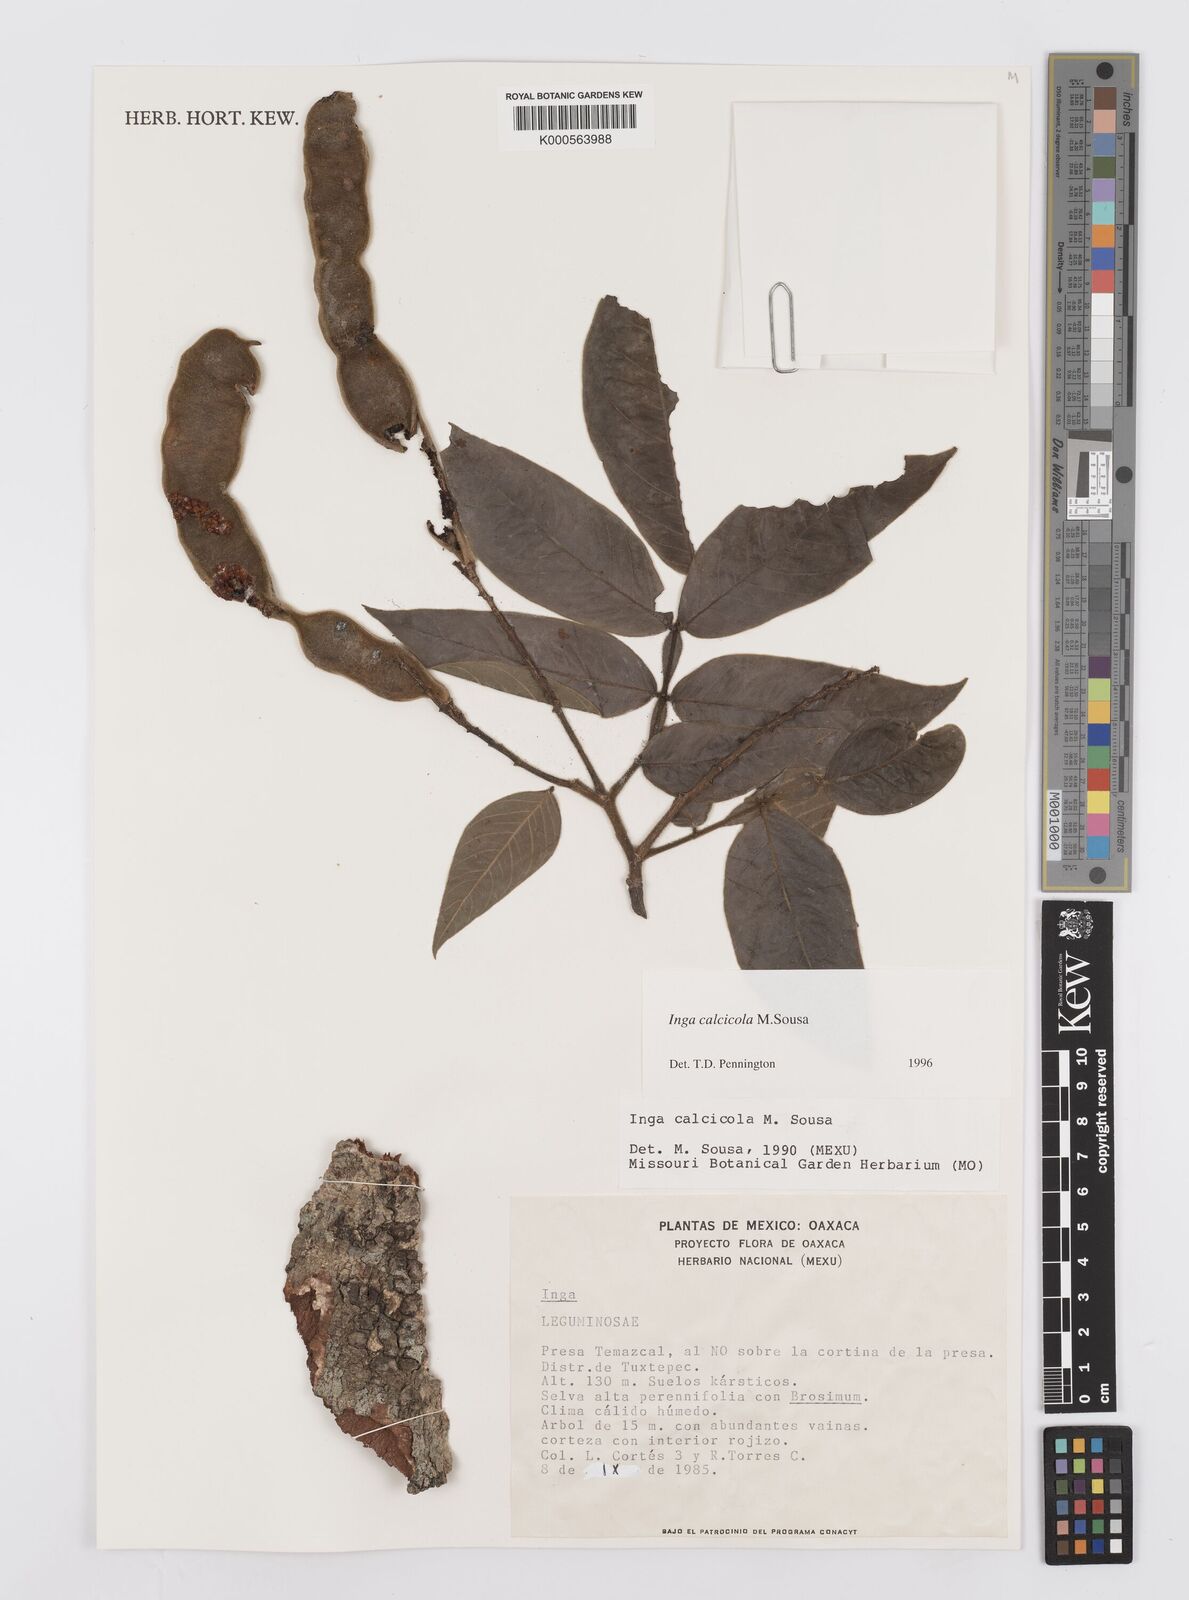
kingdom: Plantae
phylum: Tracheophyta
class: Magnoliopsida
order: Fabales
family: Fabaceae
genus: Inga
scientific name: Inga calcicola
